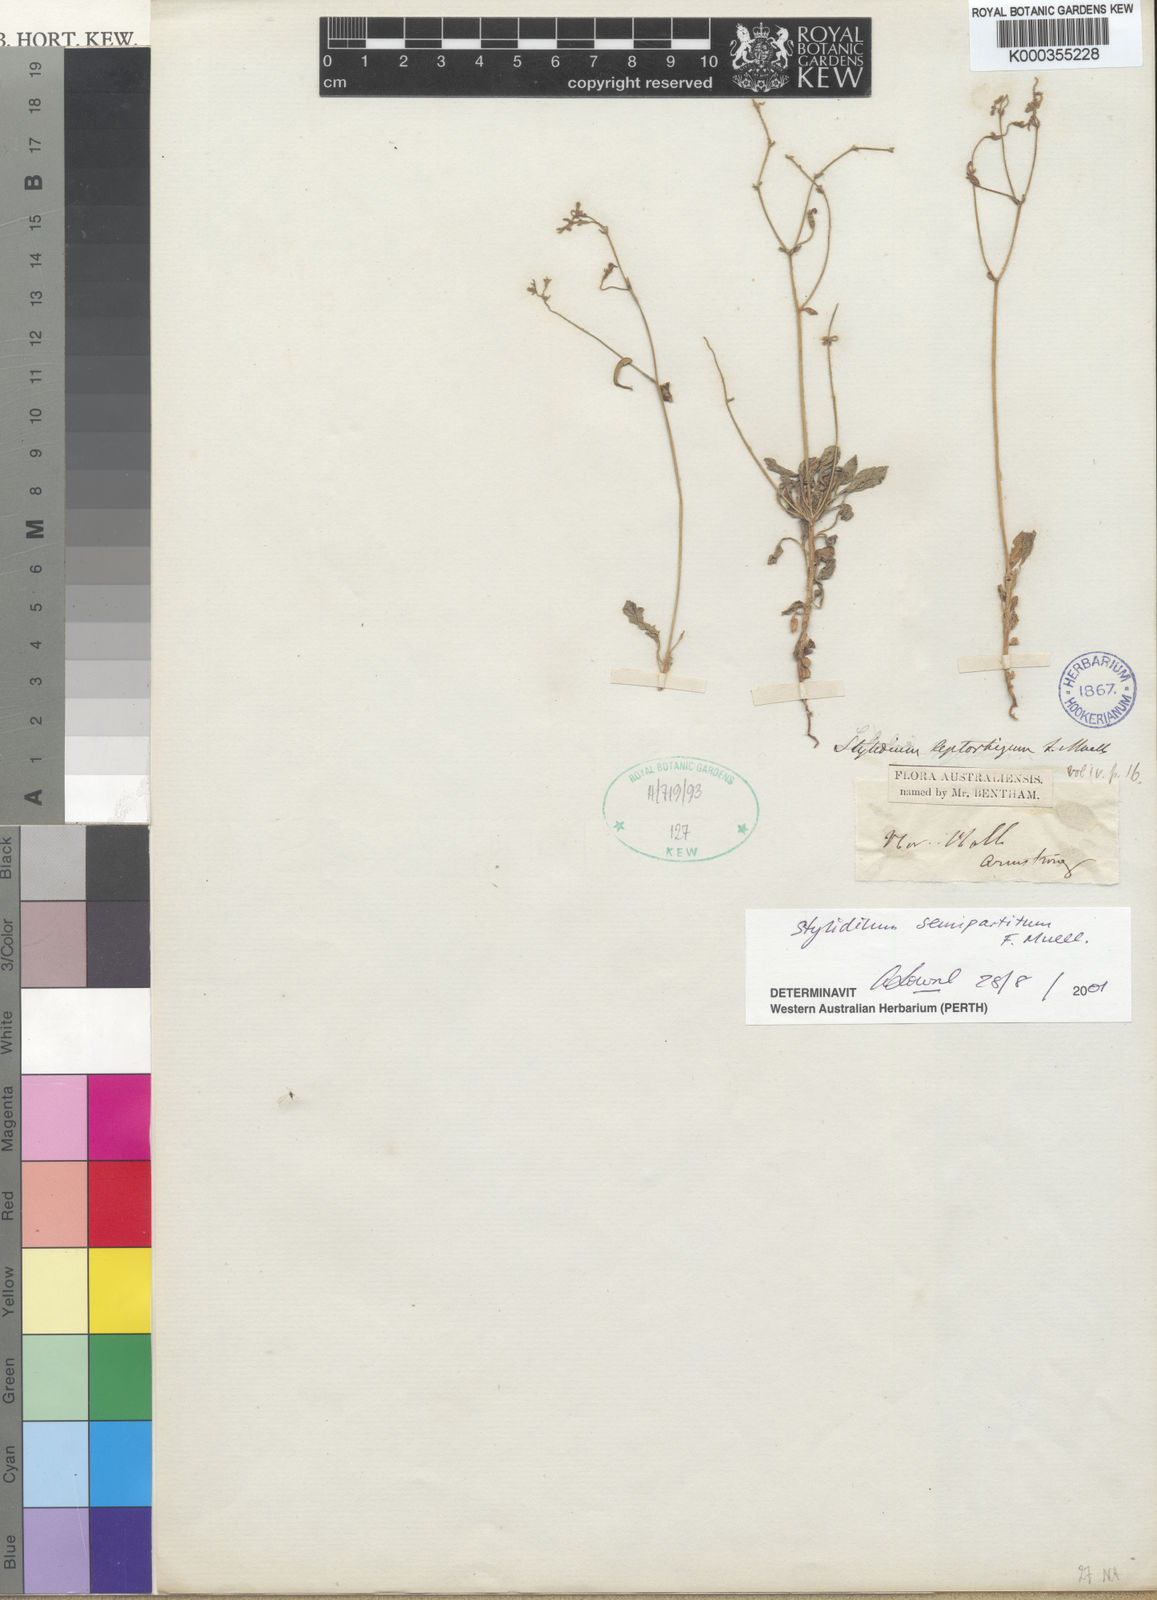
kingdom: Plantae
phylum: Tracheophyta
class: Magnoliopsida
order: Asterales
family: Stylidiaceae
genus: Stylidium
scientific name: Stylidium semipartitum
